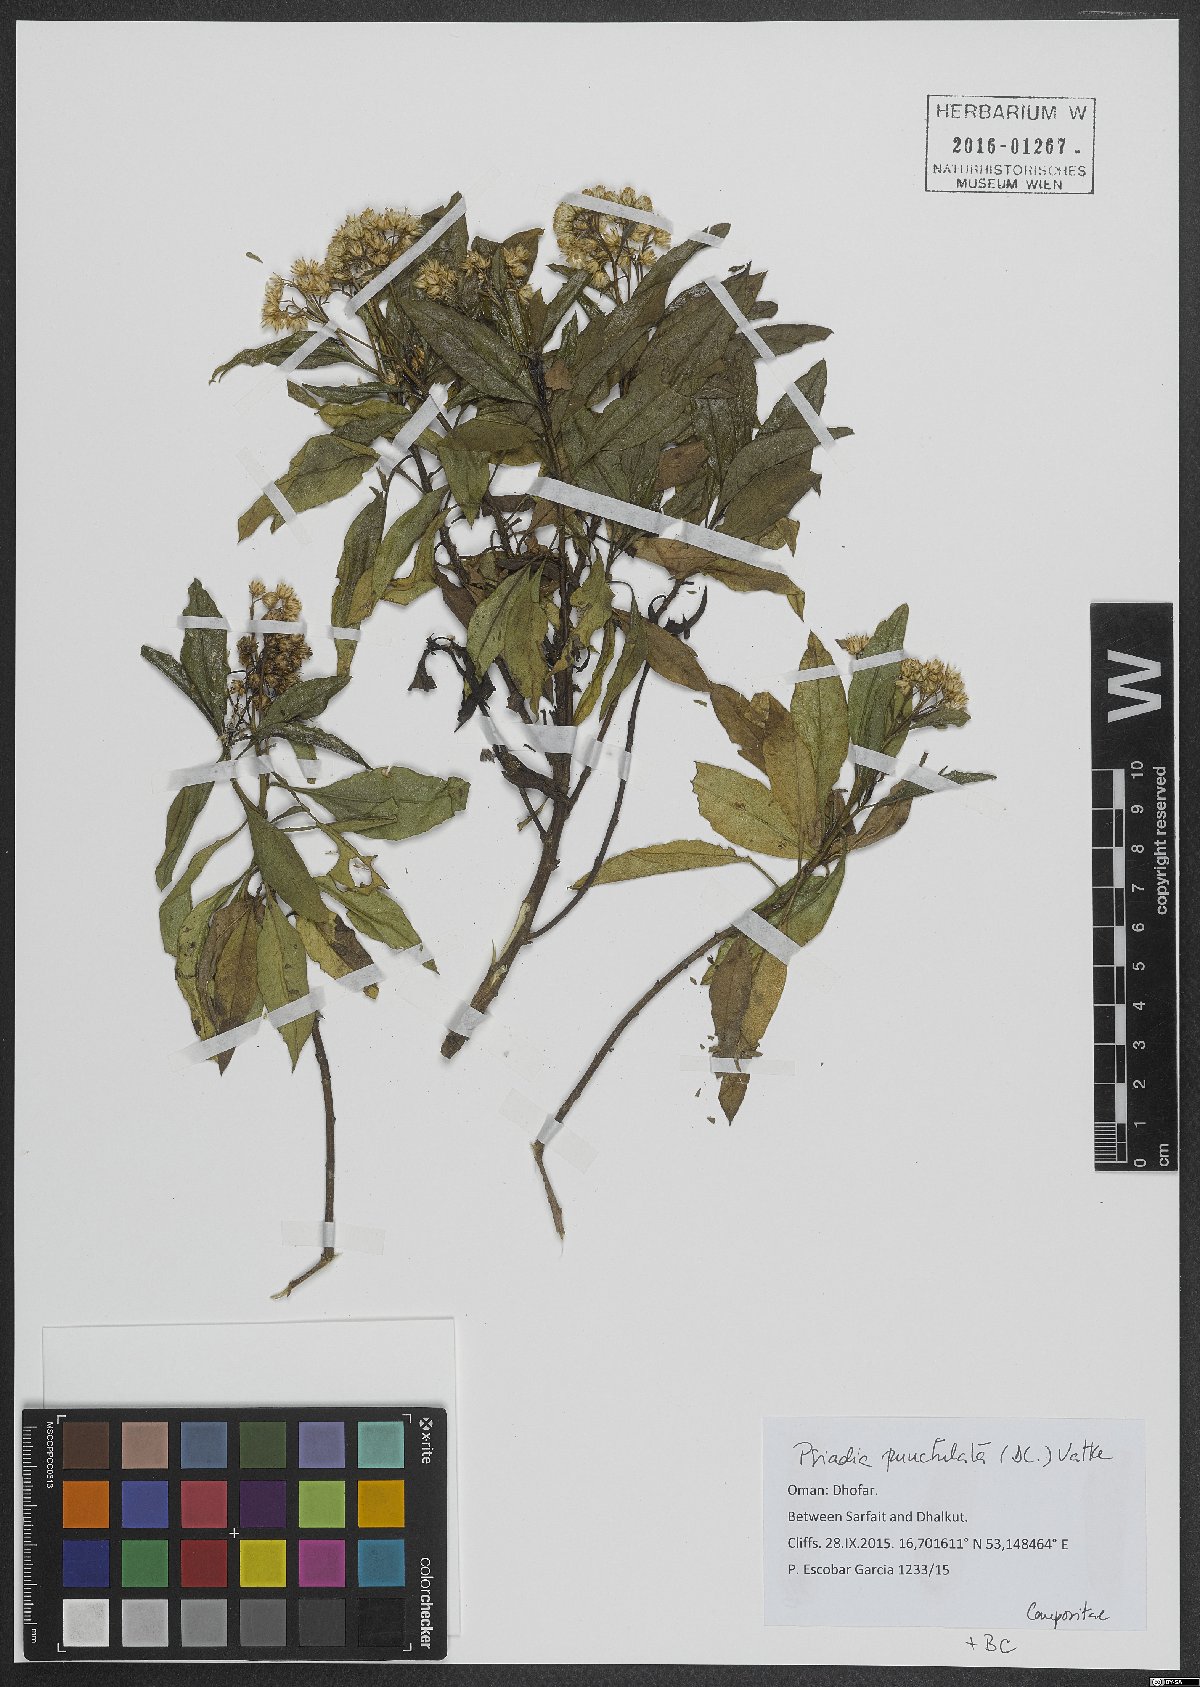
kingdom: Plantae
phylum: Tracheophyta
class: Magnoliopsida
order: Asterales
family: Asteraceae
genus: Psiadia
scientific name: Psiadia punctulata
